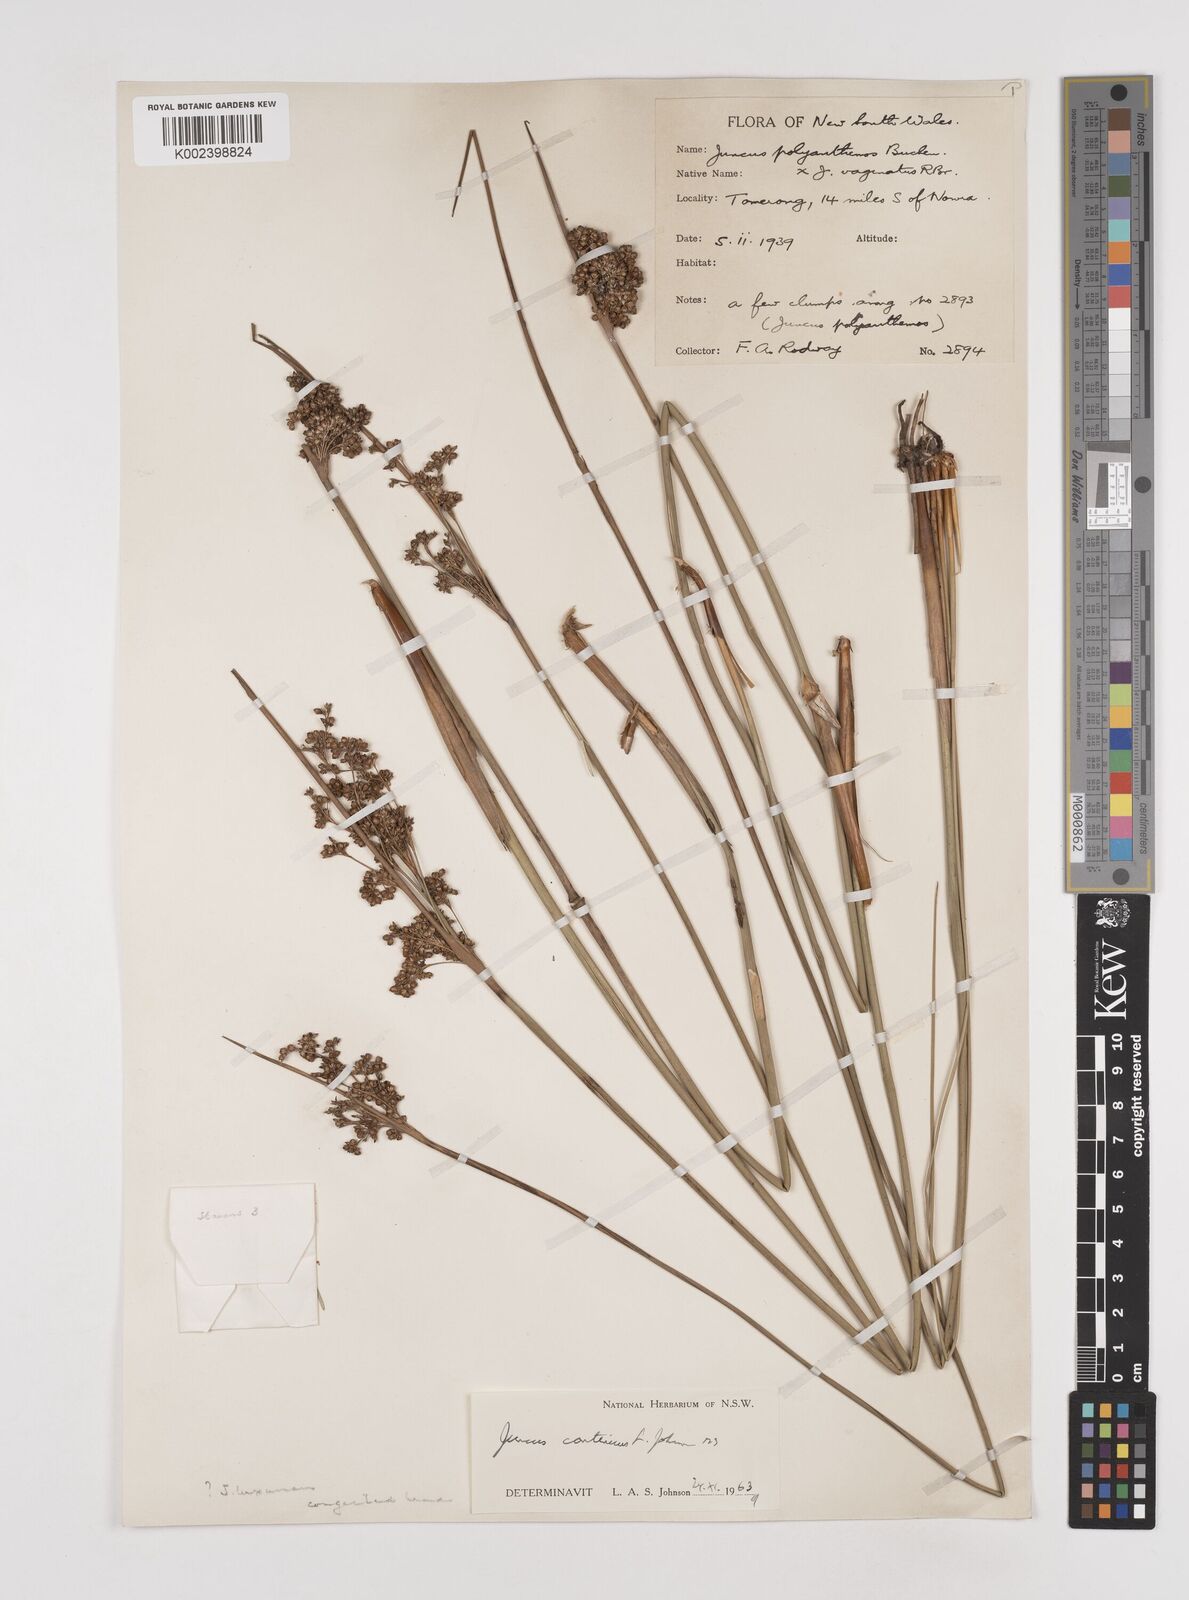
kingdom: Plantae
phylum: Tracheophyta
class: Liliopsida
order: Poales
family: Juncaceae
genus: Juncus
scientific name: Juncus continuus
